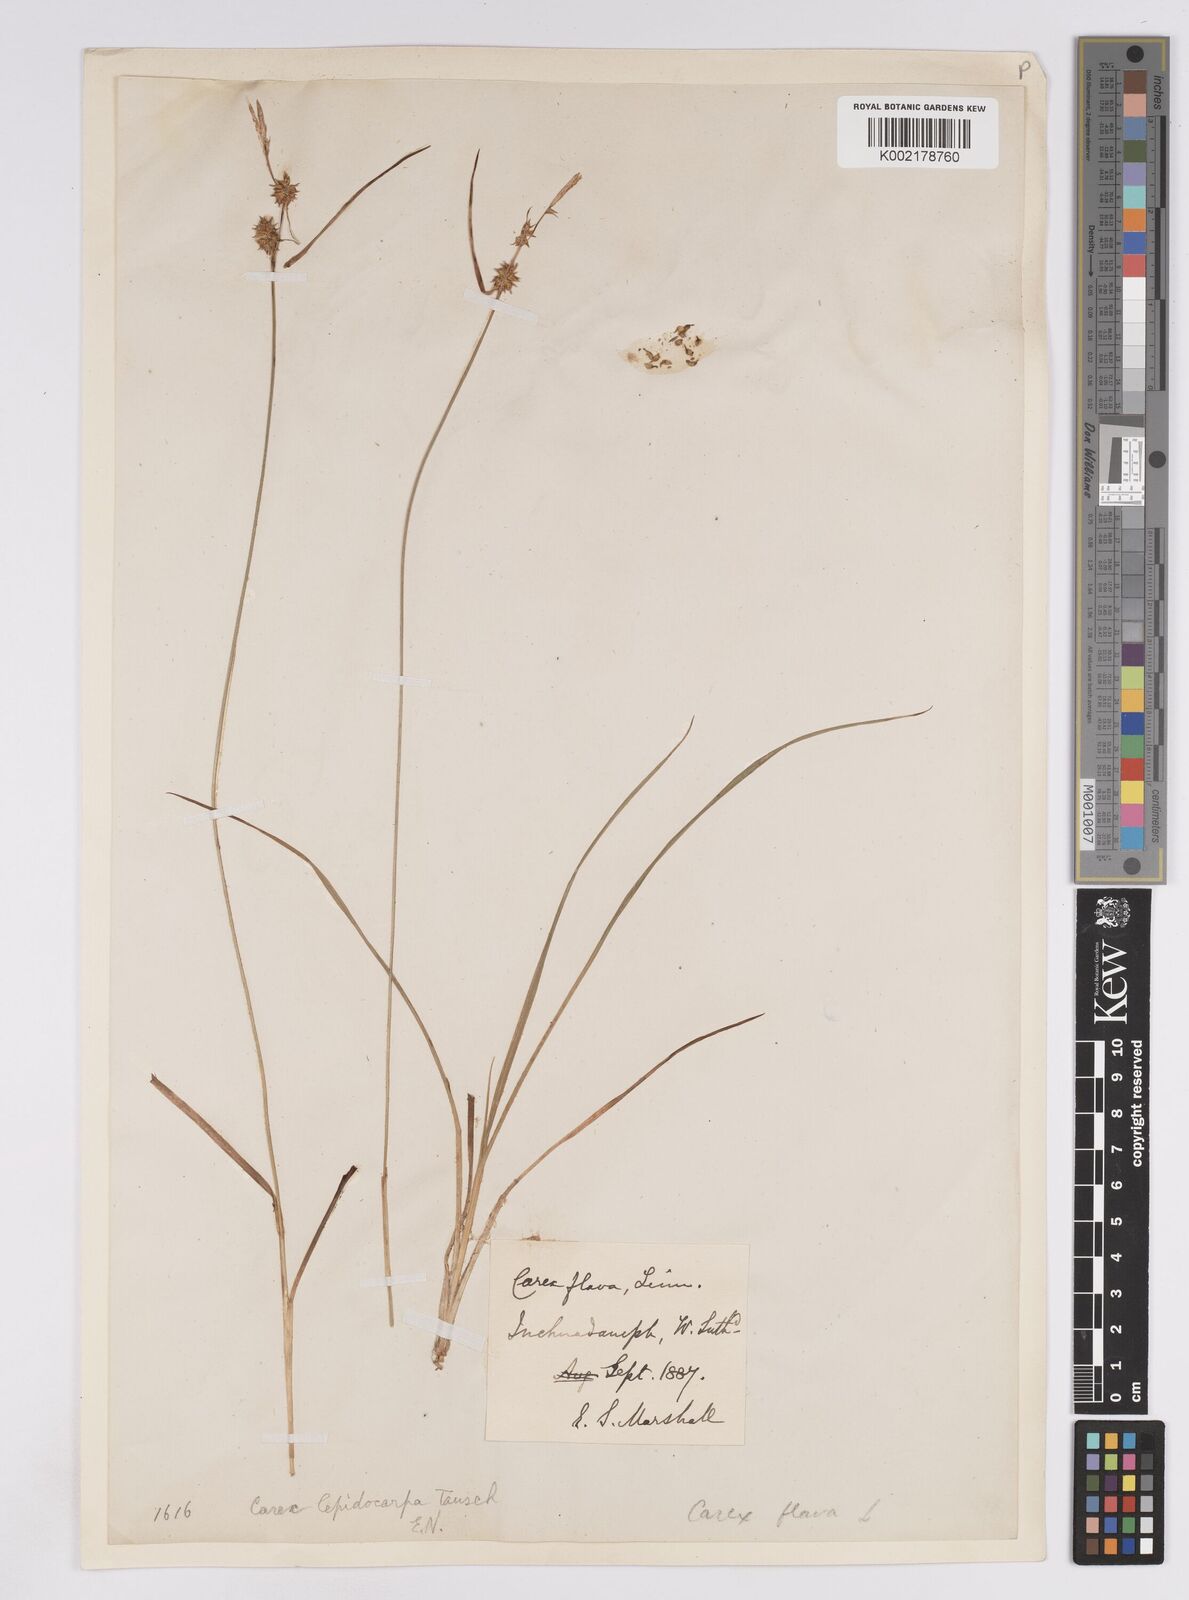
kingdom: Plantae
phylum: Tracheophyta
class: Liliopsida
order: Poales
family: Cyperaceae
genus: Carex
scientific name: Carex lepidocarpa
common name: Long-stalked yellow-sedge
